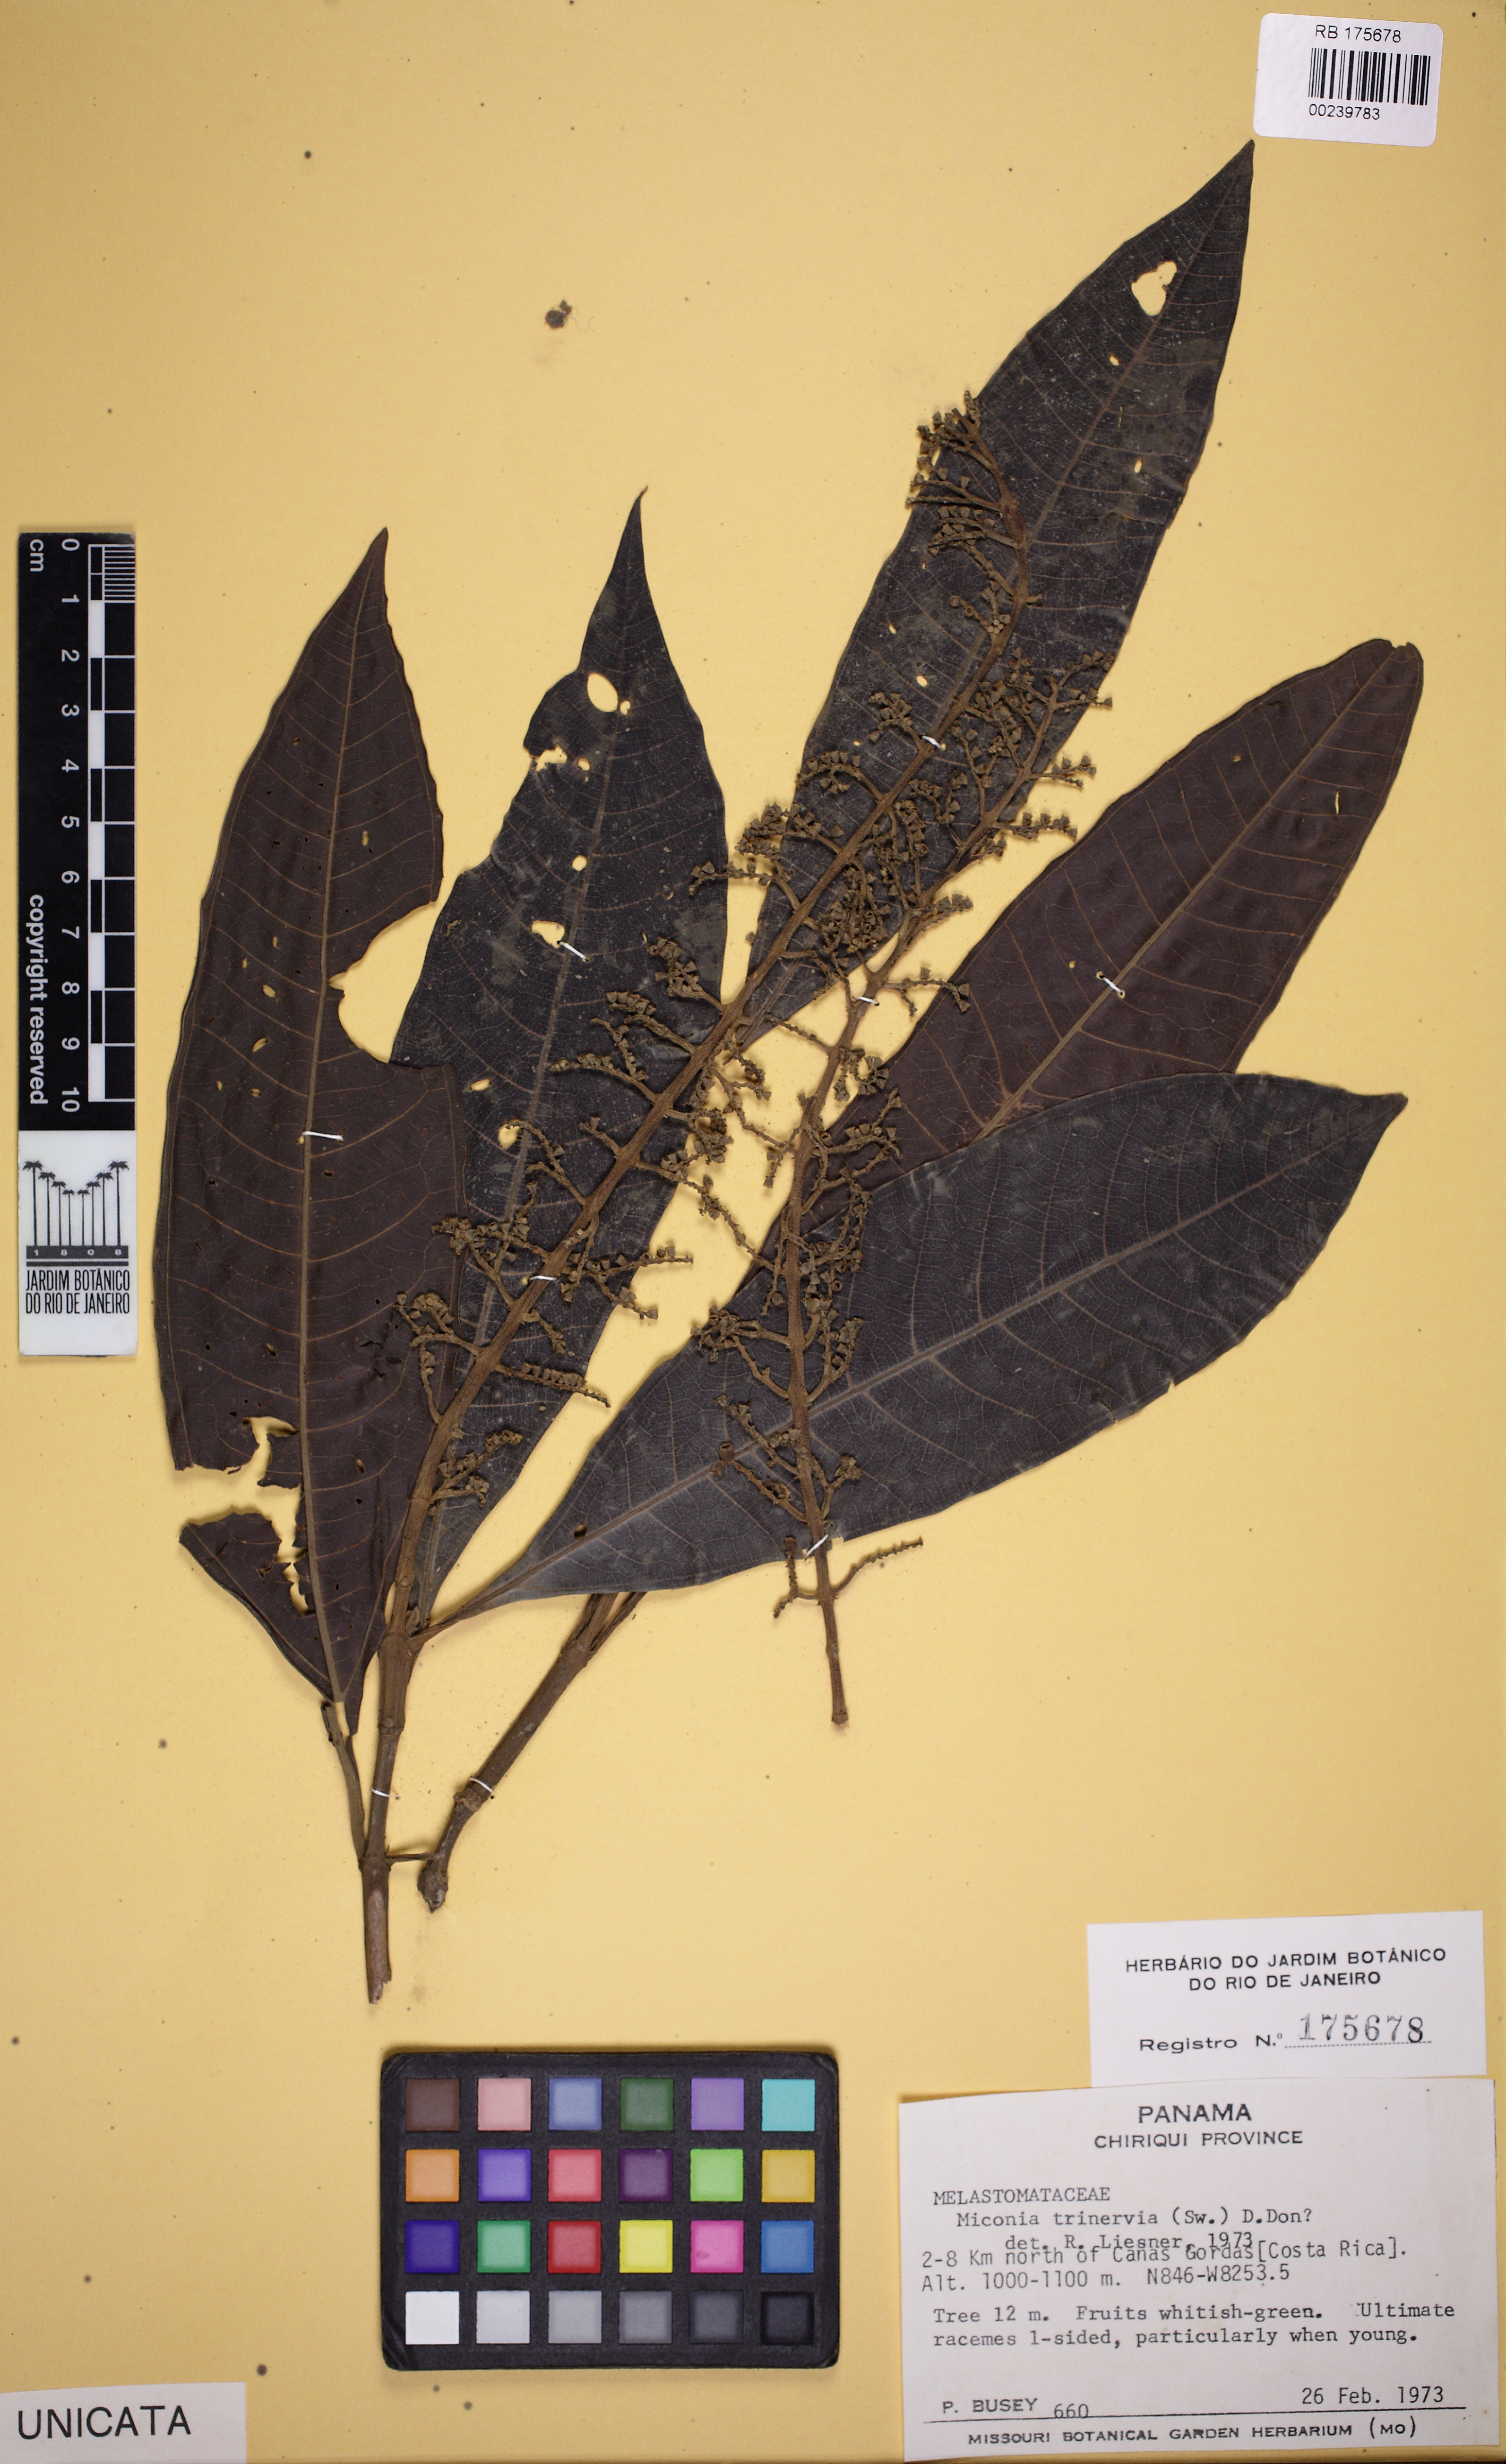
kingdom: Plantae
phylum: Tracheophyta
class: Magnoliopsida
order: Myrtales
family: Melastomataceae
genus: Miconia
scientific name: Miconia trinervia
